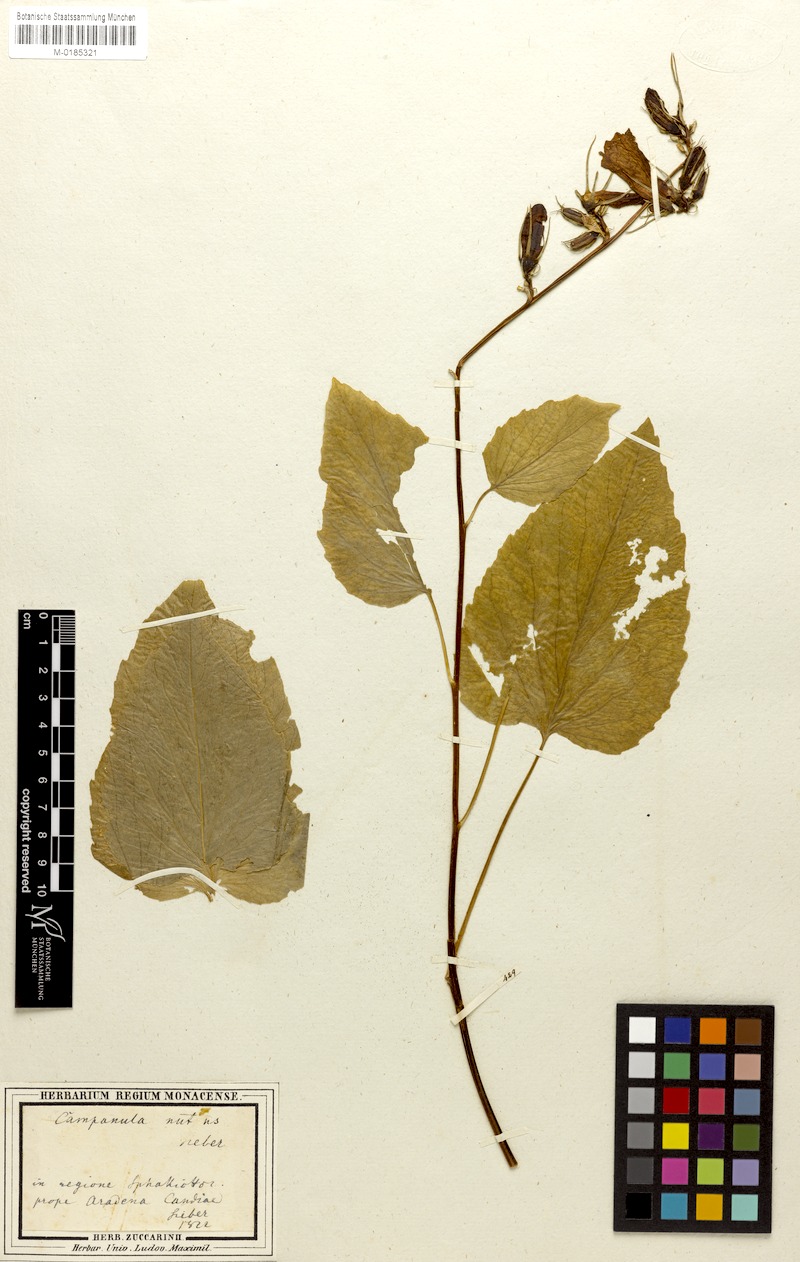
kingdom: Plantae
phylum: Tracheophyta
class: Magnoliopsida
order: Asterales
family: Campanulaceae
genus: Campanula
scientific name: Campanula cretica
